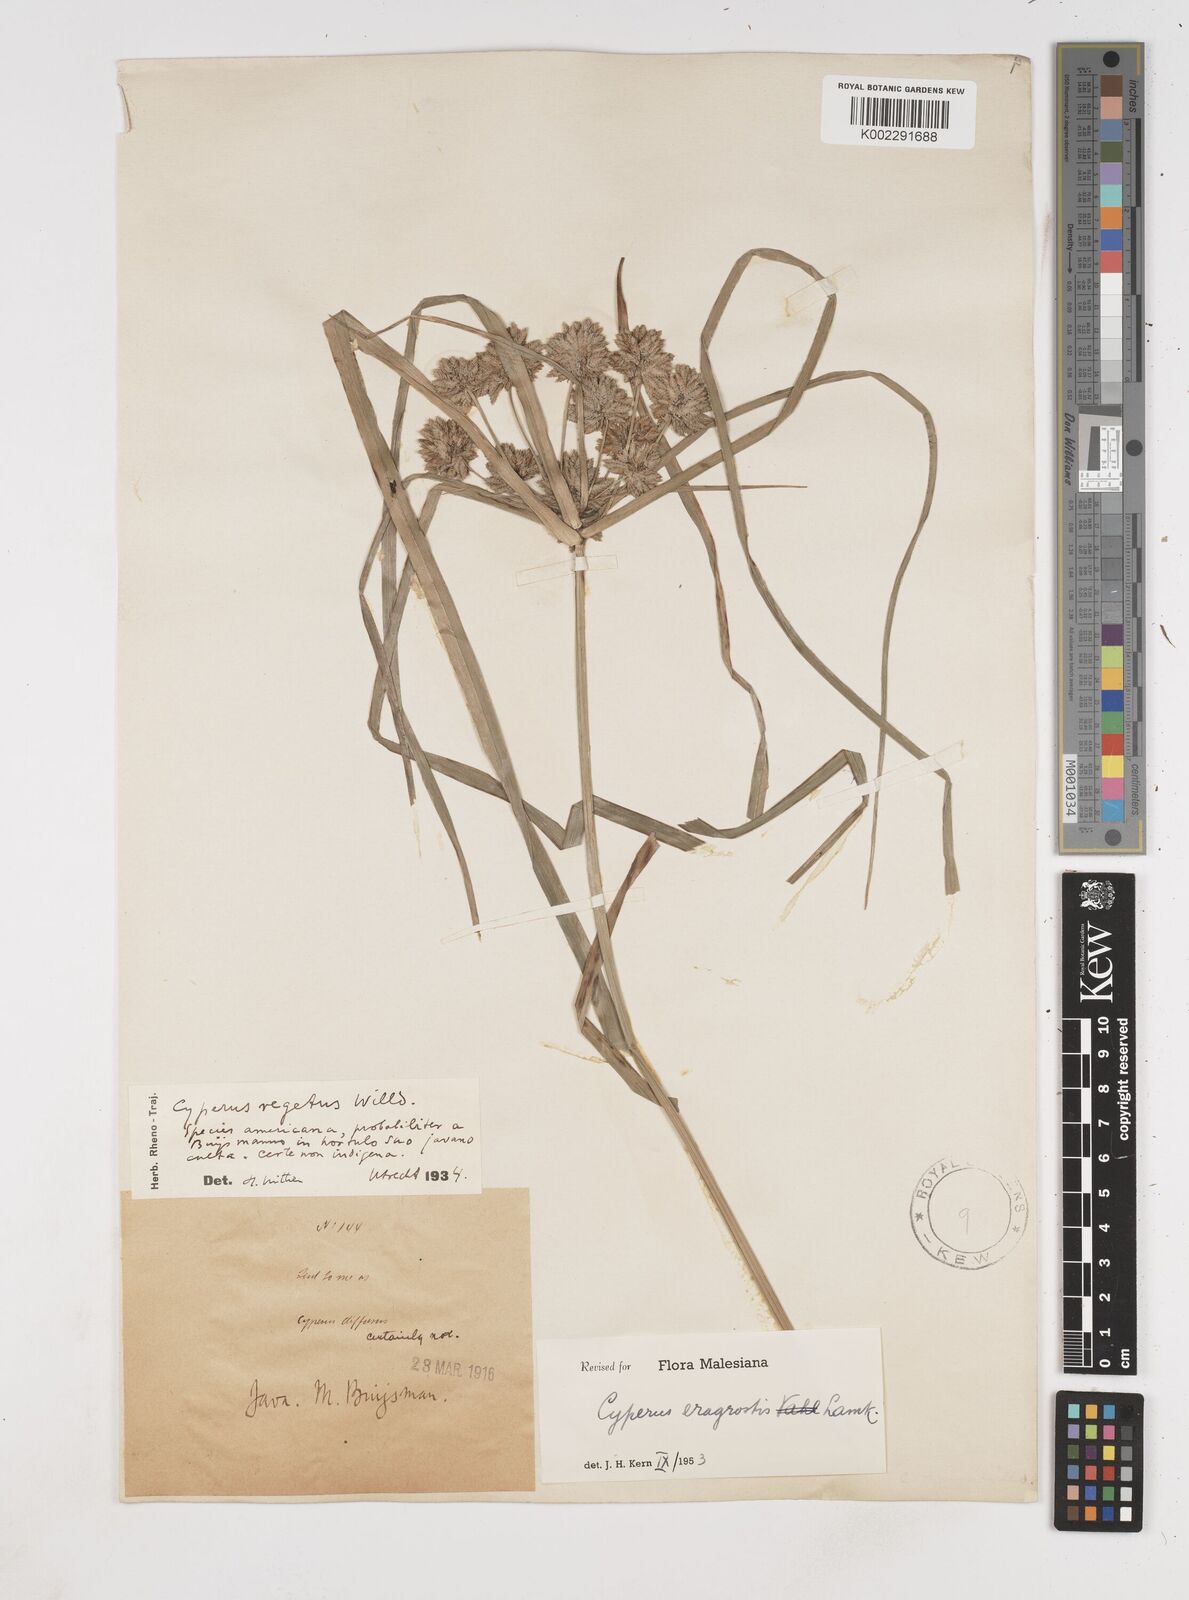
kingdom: Plantae
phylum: Tracheophyta
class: Liliopsida
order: Poales
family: Cyperaceae
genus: Cyperus
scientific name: Cyperus eragrostis
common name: Tall flatsedge
